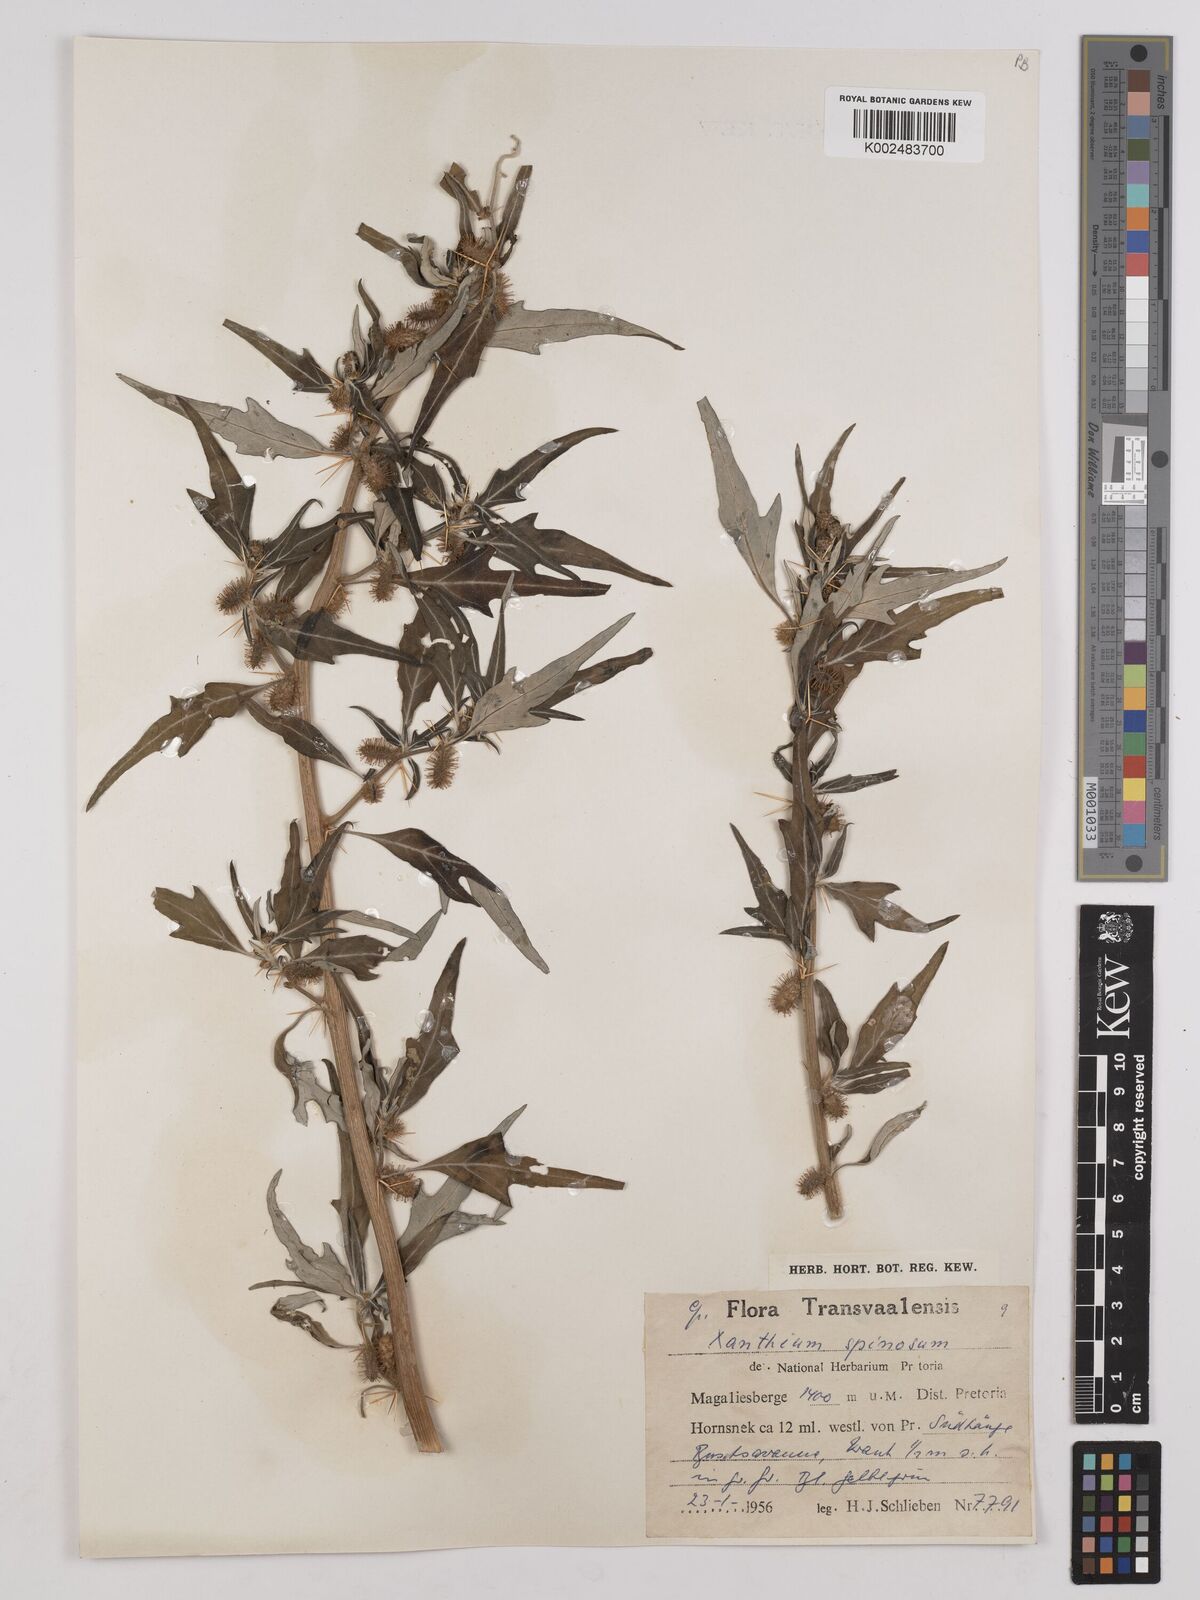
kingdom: Plantae
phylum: Tracheophyta
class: Magnoliopsida
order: Asterales
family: Asteraceae
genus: Xanthium
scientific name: Xanthium spinosum
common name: Spiny cocklebur
